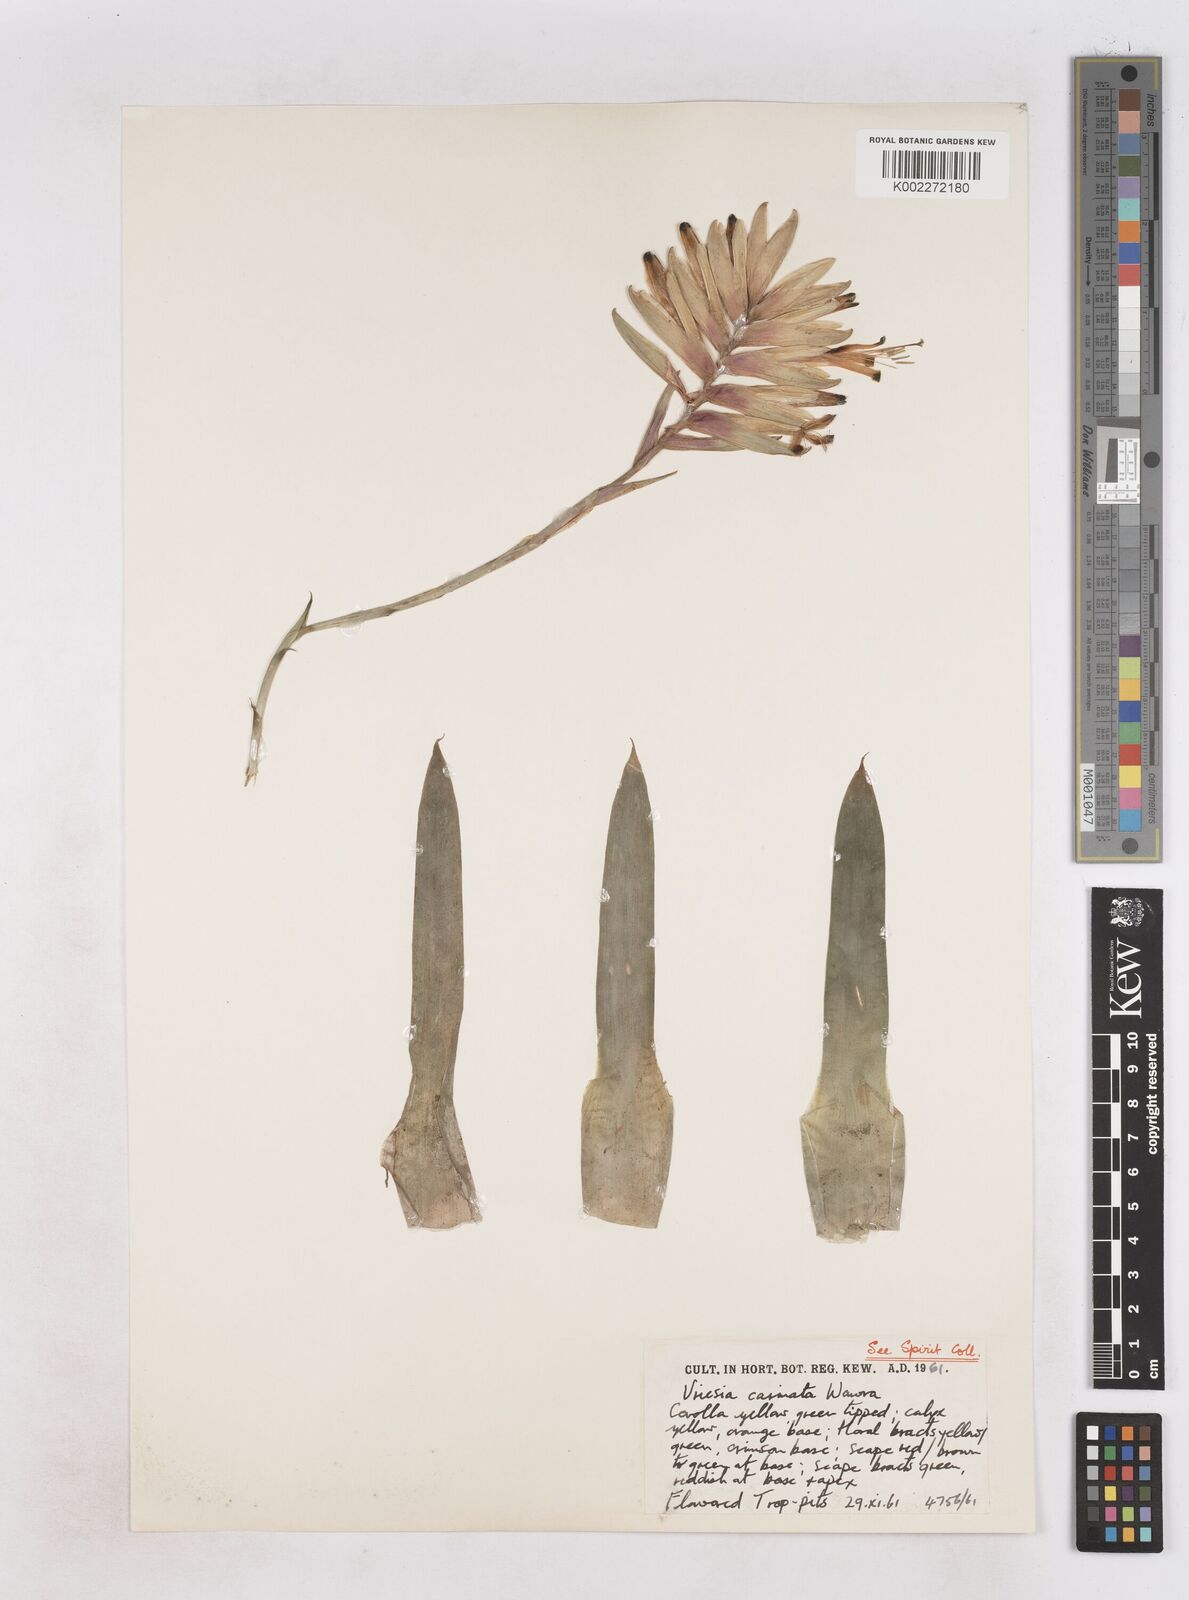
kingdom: Plantae
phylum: Tracheophyta
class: Liliopsida
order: Poales
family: Bromeliaceae
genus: Vriesea
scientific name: Vriesea carinata
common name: Lobster-claws
